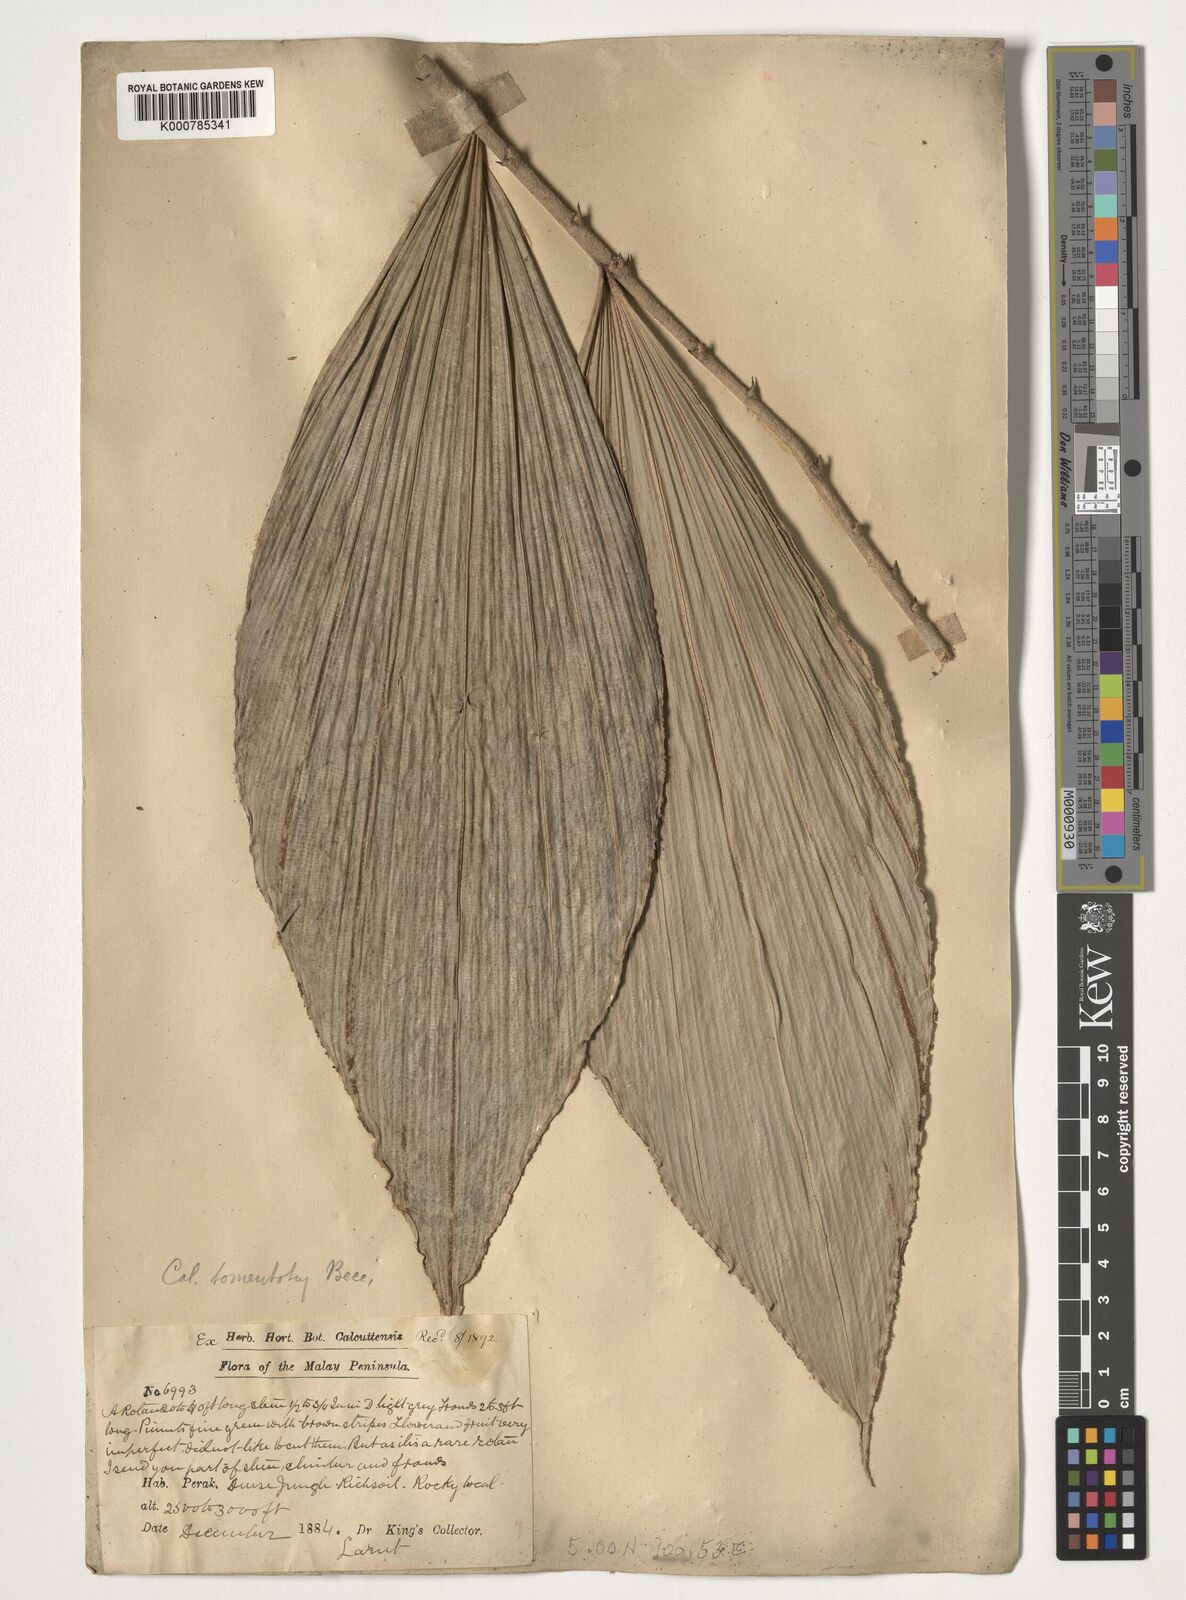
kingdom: Plantae
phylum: Tracheophyta
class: Liliopsida
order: Arecales
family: Arecaceae
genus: Calamus
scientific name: Calamus rhomboideus
